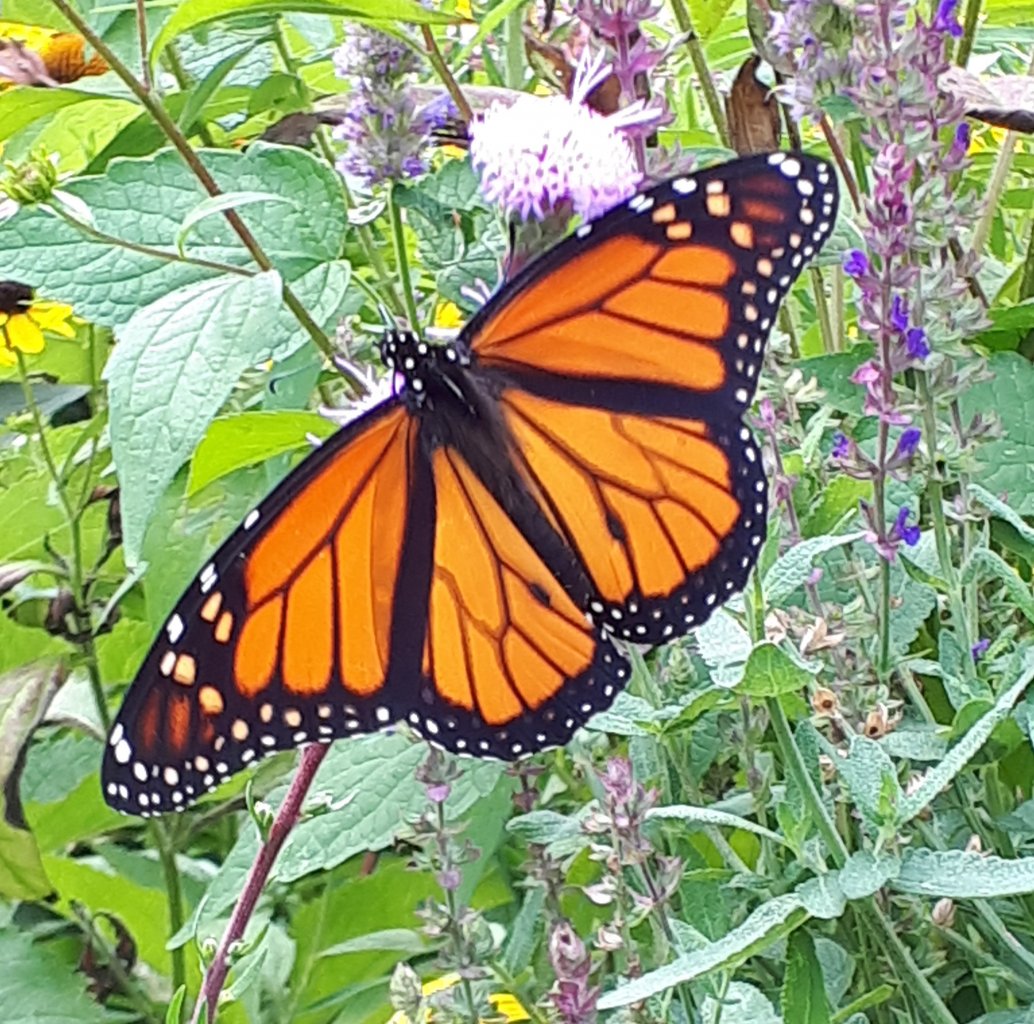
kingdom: Animalia
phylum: Arthropoda
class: Insecta
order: Lepidoptera
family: Nymphalidae
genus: Danaus
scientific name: Danaus plexippus
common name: Monarch
